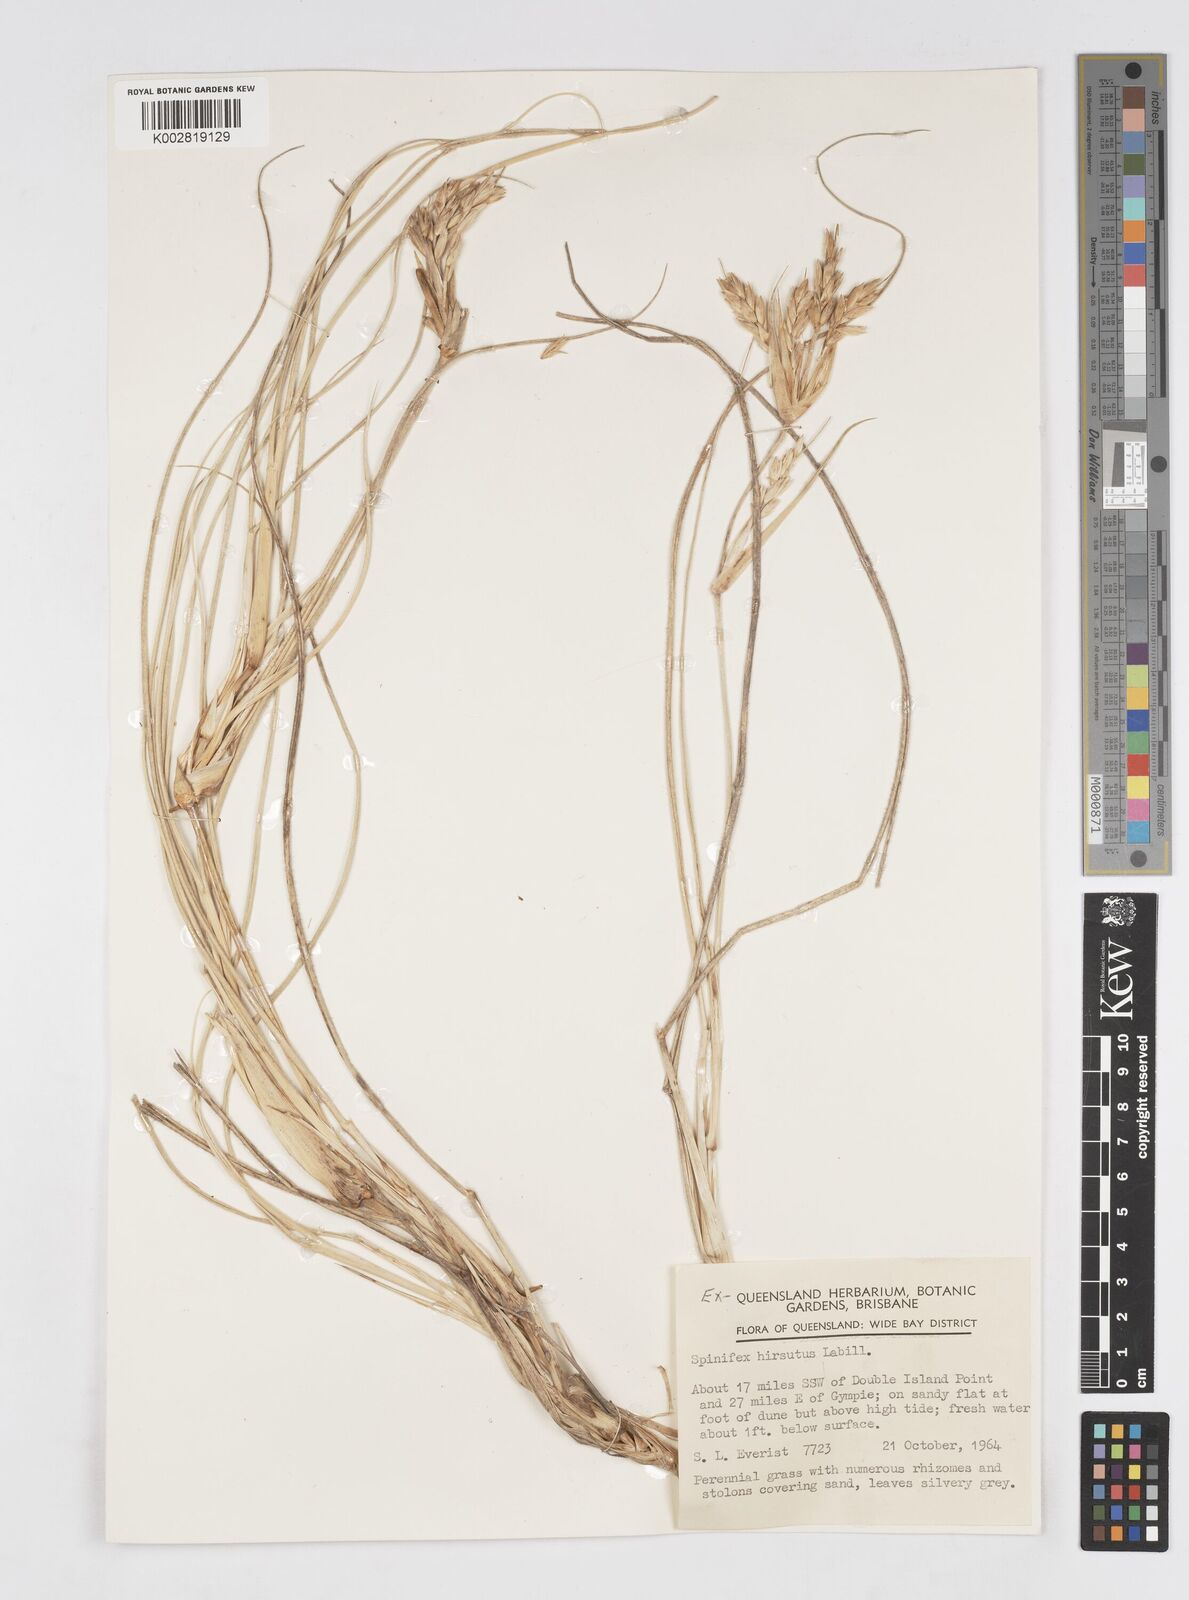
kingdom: Plantae
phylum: Tracheophyta
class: Liliopsida
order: Poales
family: Poaceae
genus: Spinifex
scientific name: Spinifex sericeus
